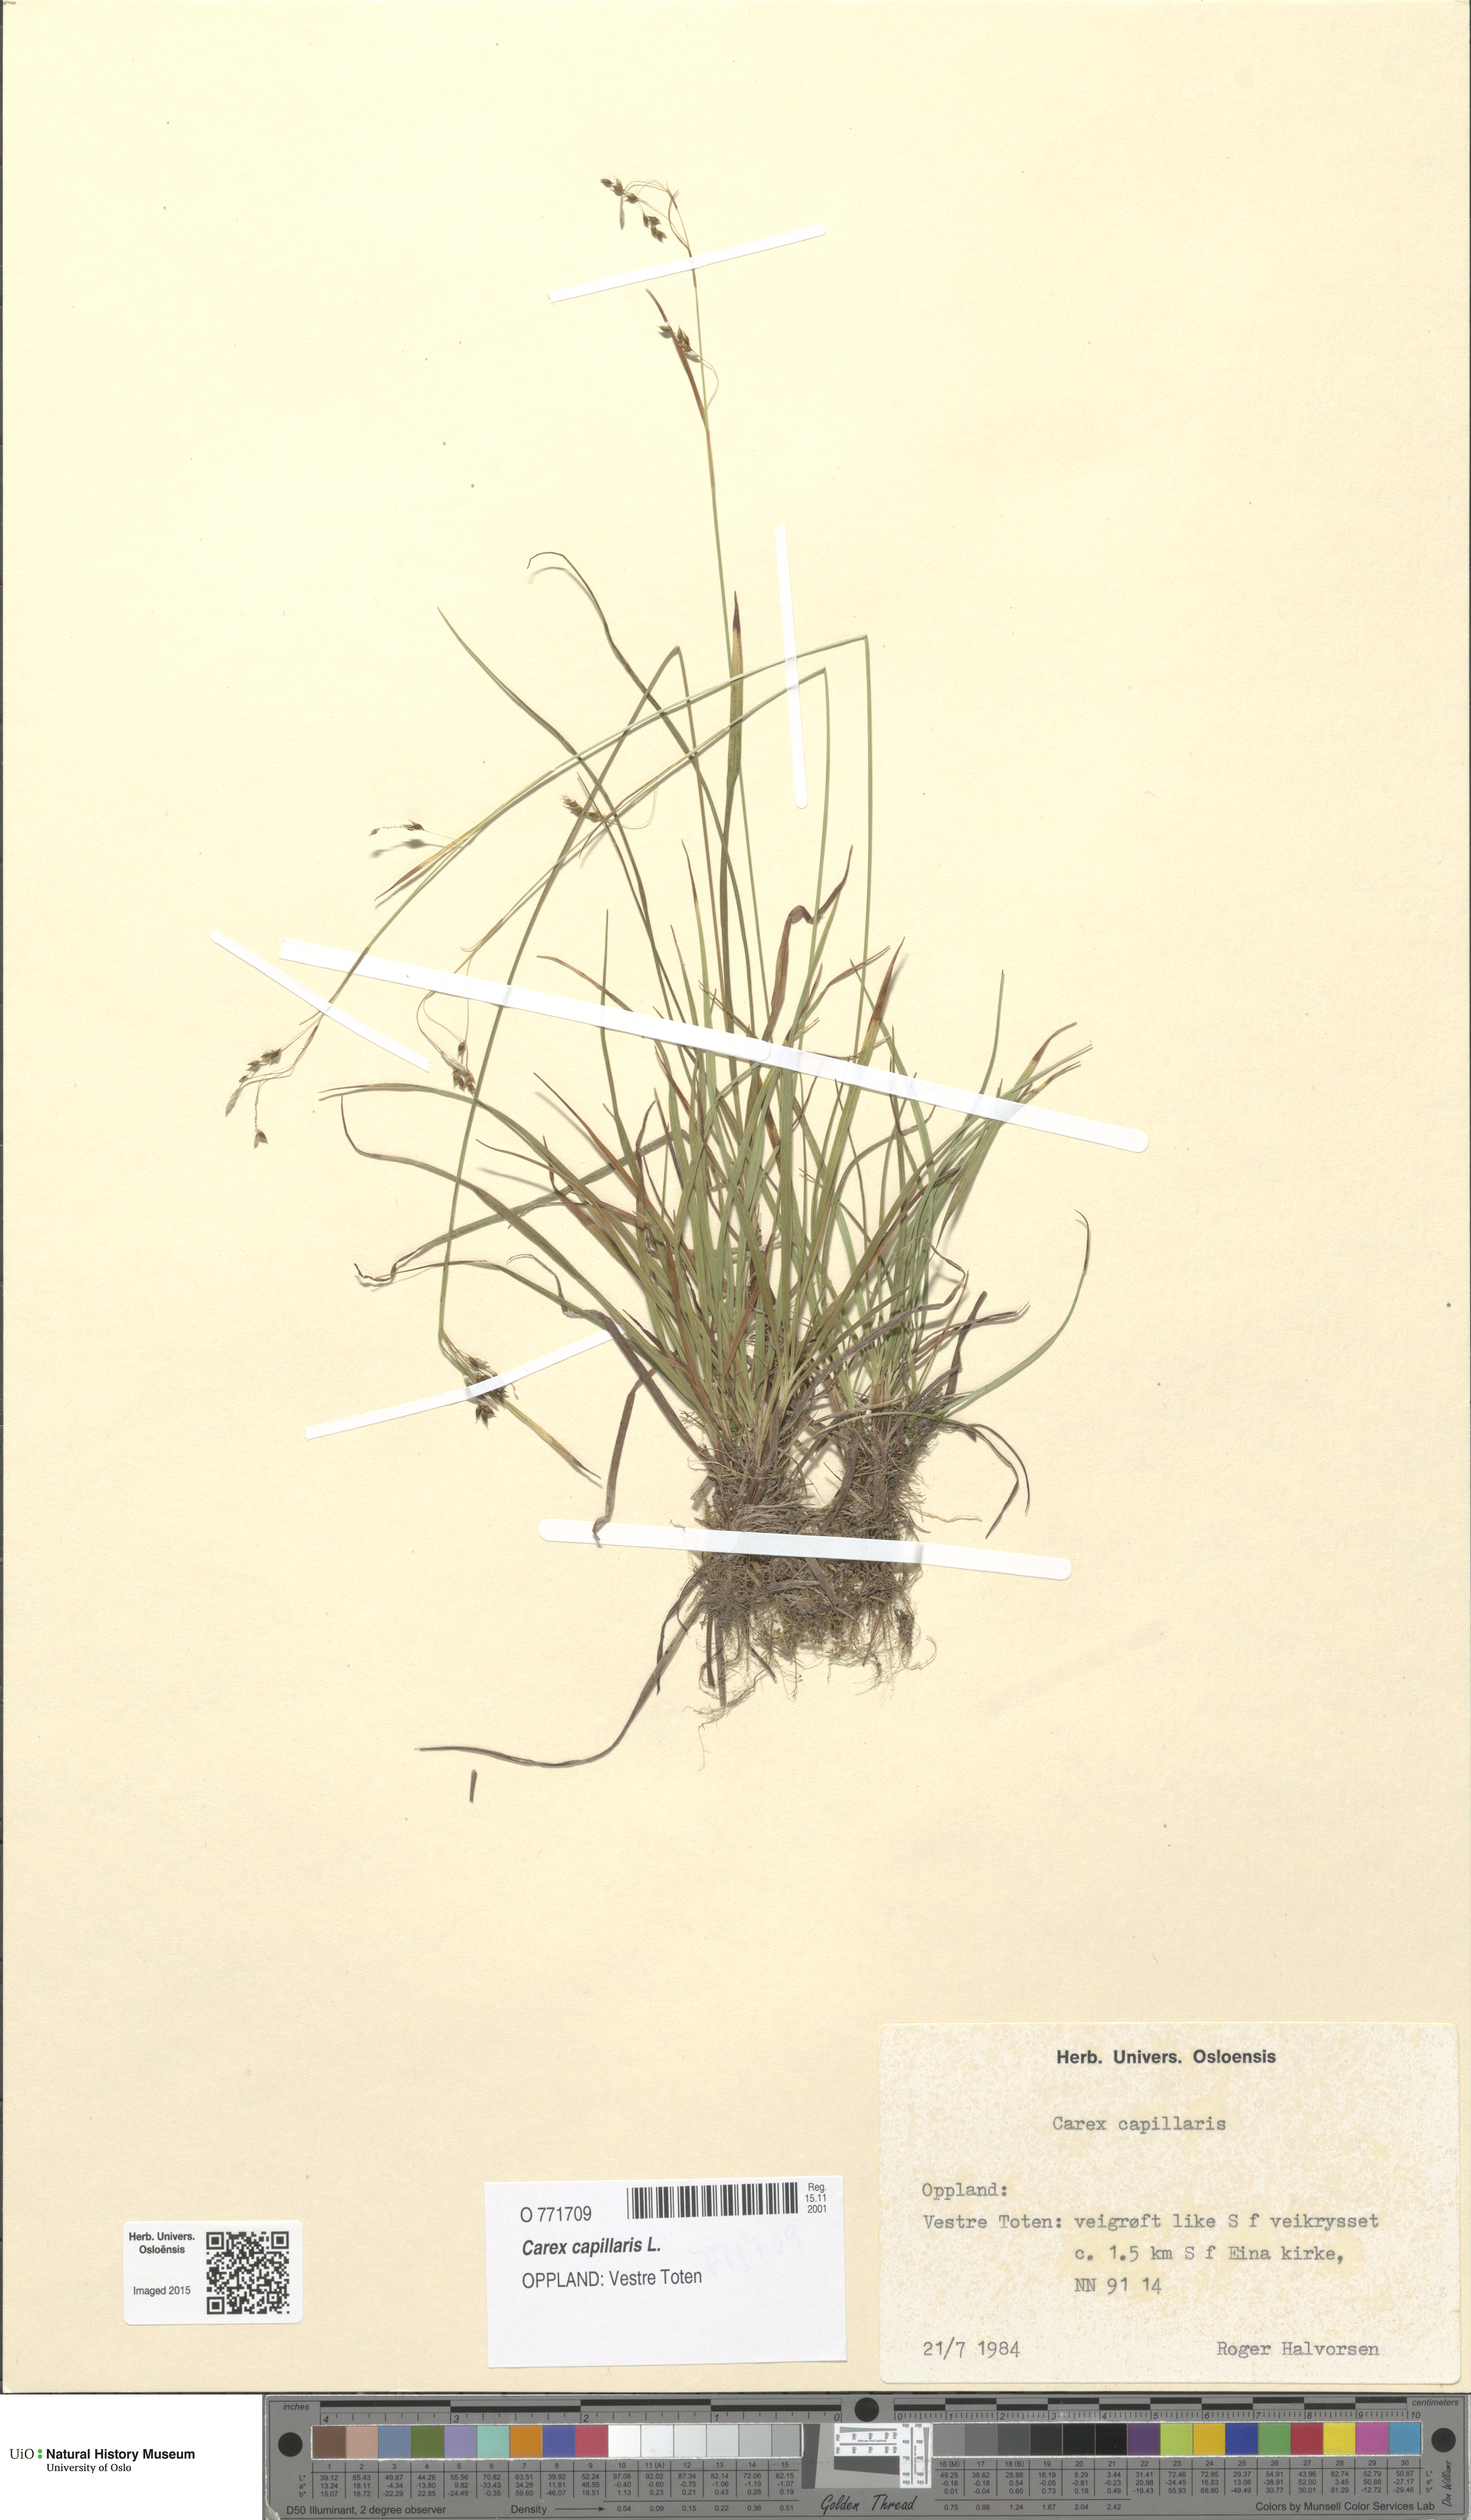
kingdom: Plantae
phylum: Tracheophyta
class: Liliopsida
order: Poales
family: Cyperaceae
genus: Carex
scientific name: Carex capillaris
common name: Hair sedge
